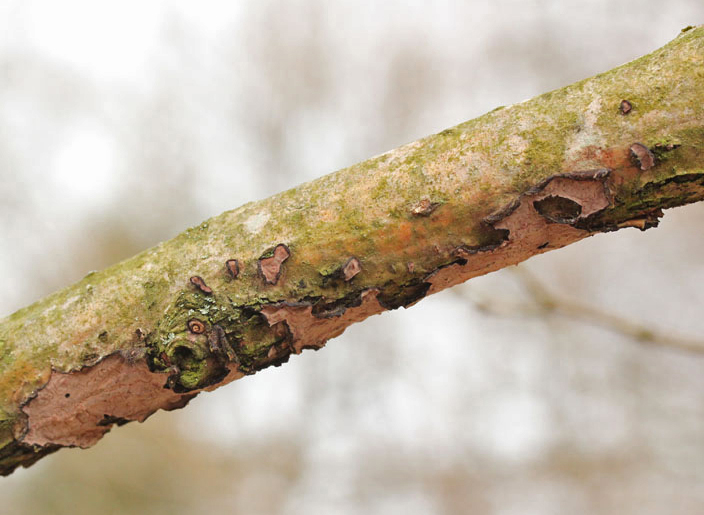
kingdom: Fungi
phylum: Basidiomycota
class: Agaricomycetes
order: Russulales
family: Peniophoraceae
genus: Peniophora
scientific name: Peniophora quercina
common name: ege-voksskind
